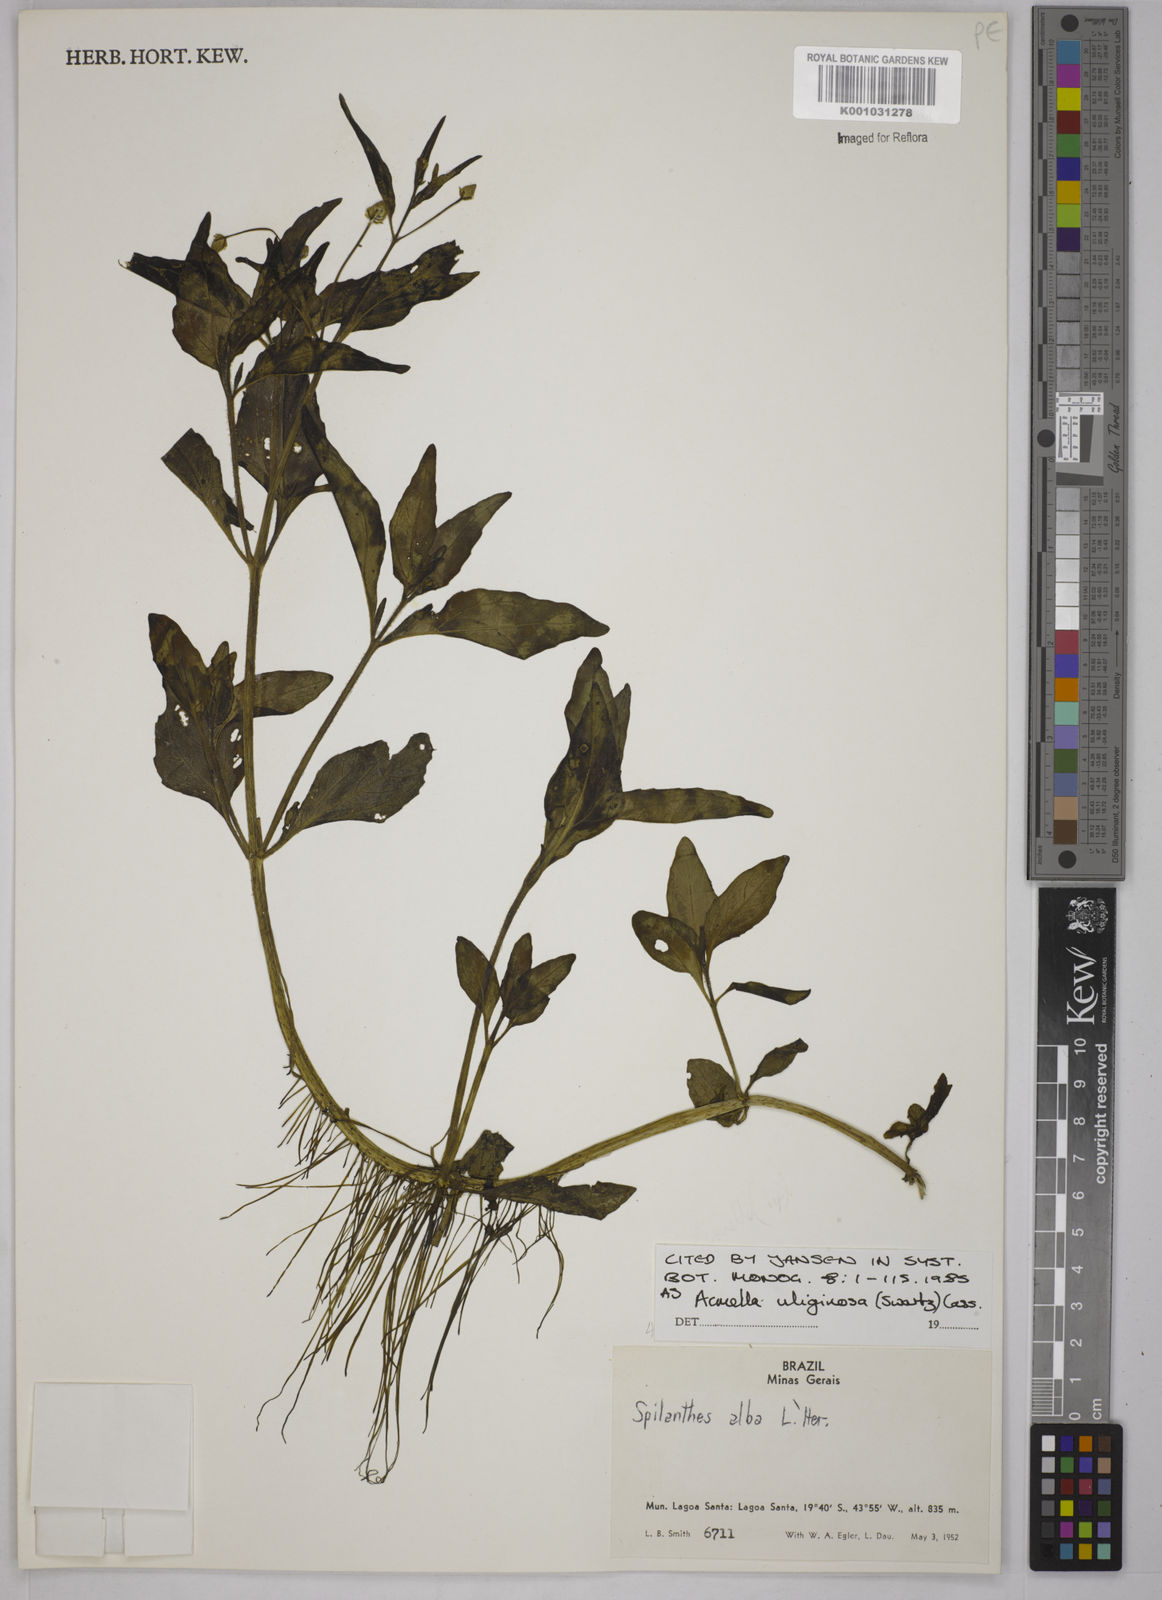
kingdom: Plantae
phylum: Tracheophyta
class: Magnoliopsida
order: Asterales
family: Asteraceae
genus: Acmella
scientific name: Acmella uliginosa
